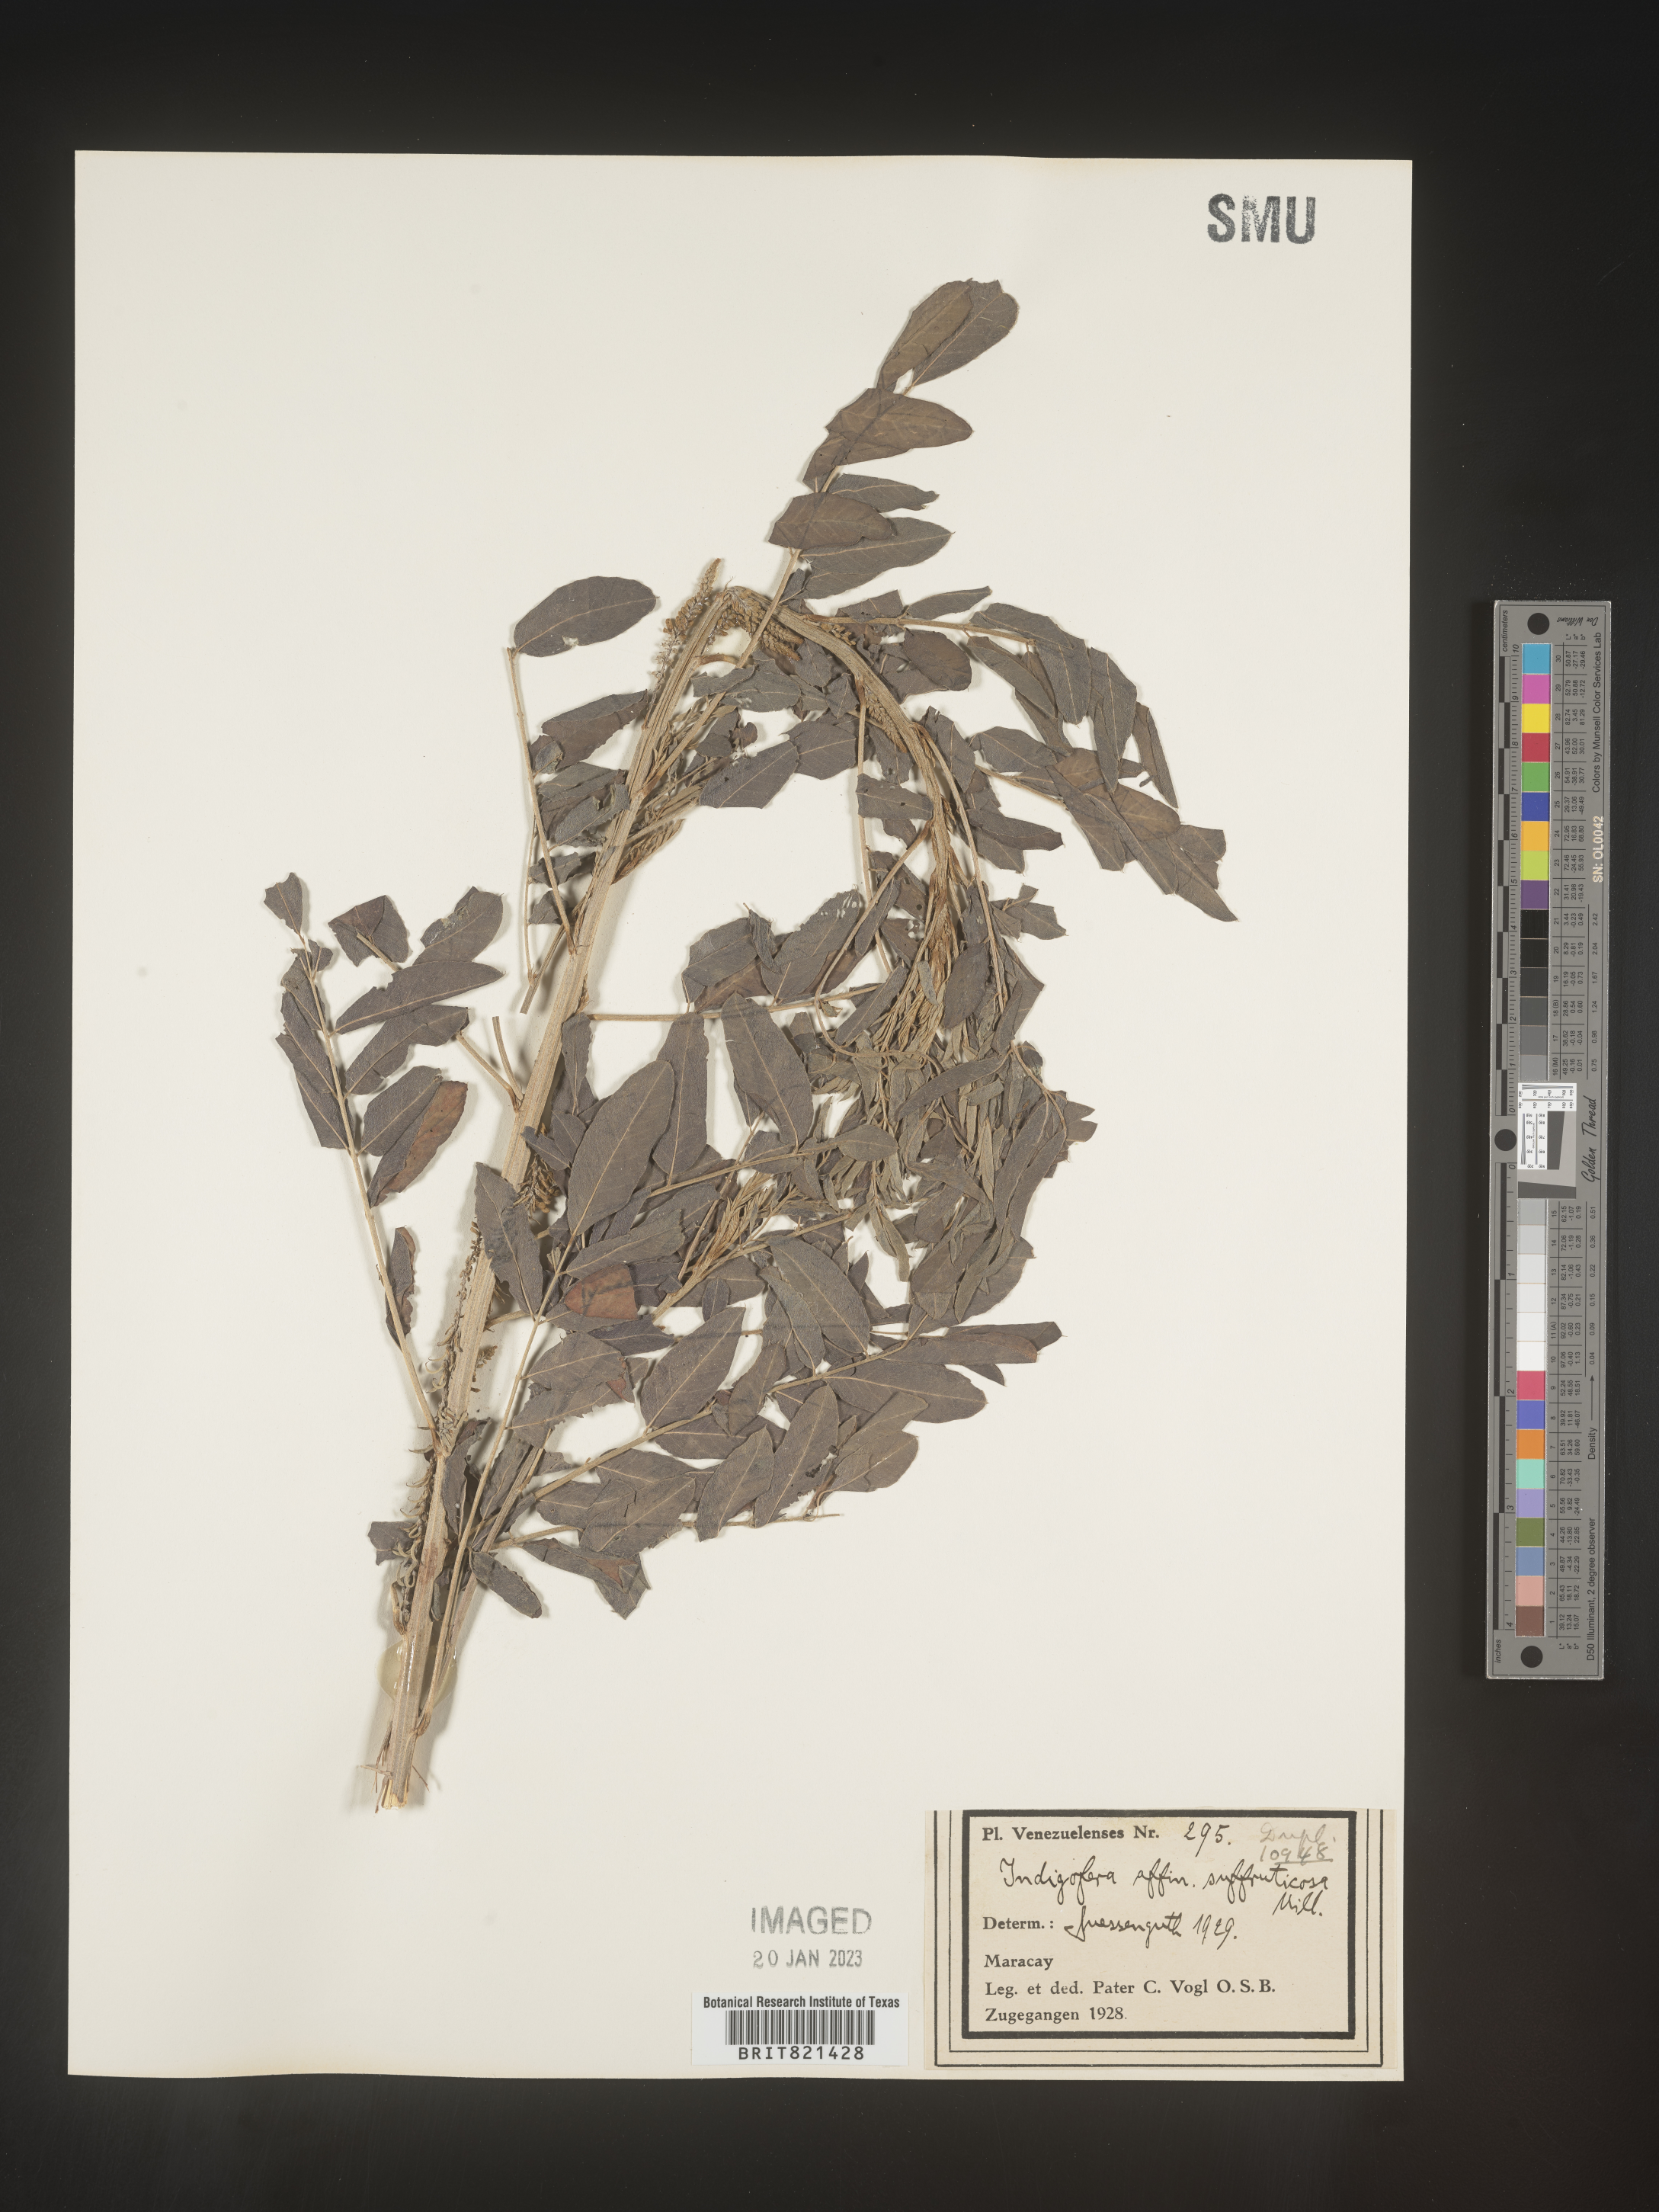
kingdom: Plantae
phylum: Tracheophyta
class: Magnoliopsida
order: Fabales
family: Fabaceae
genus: Indigofera
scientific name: Indigofera
